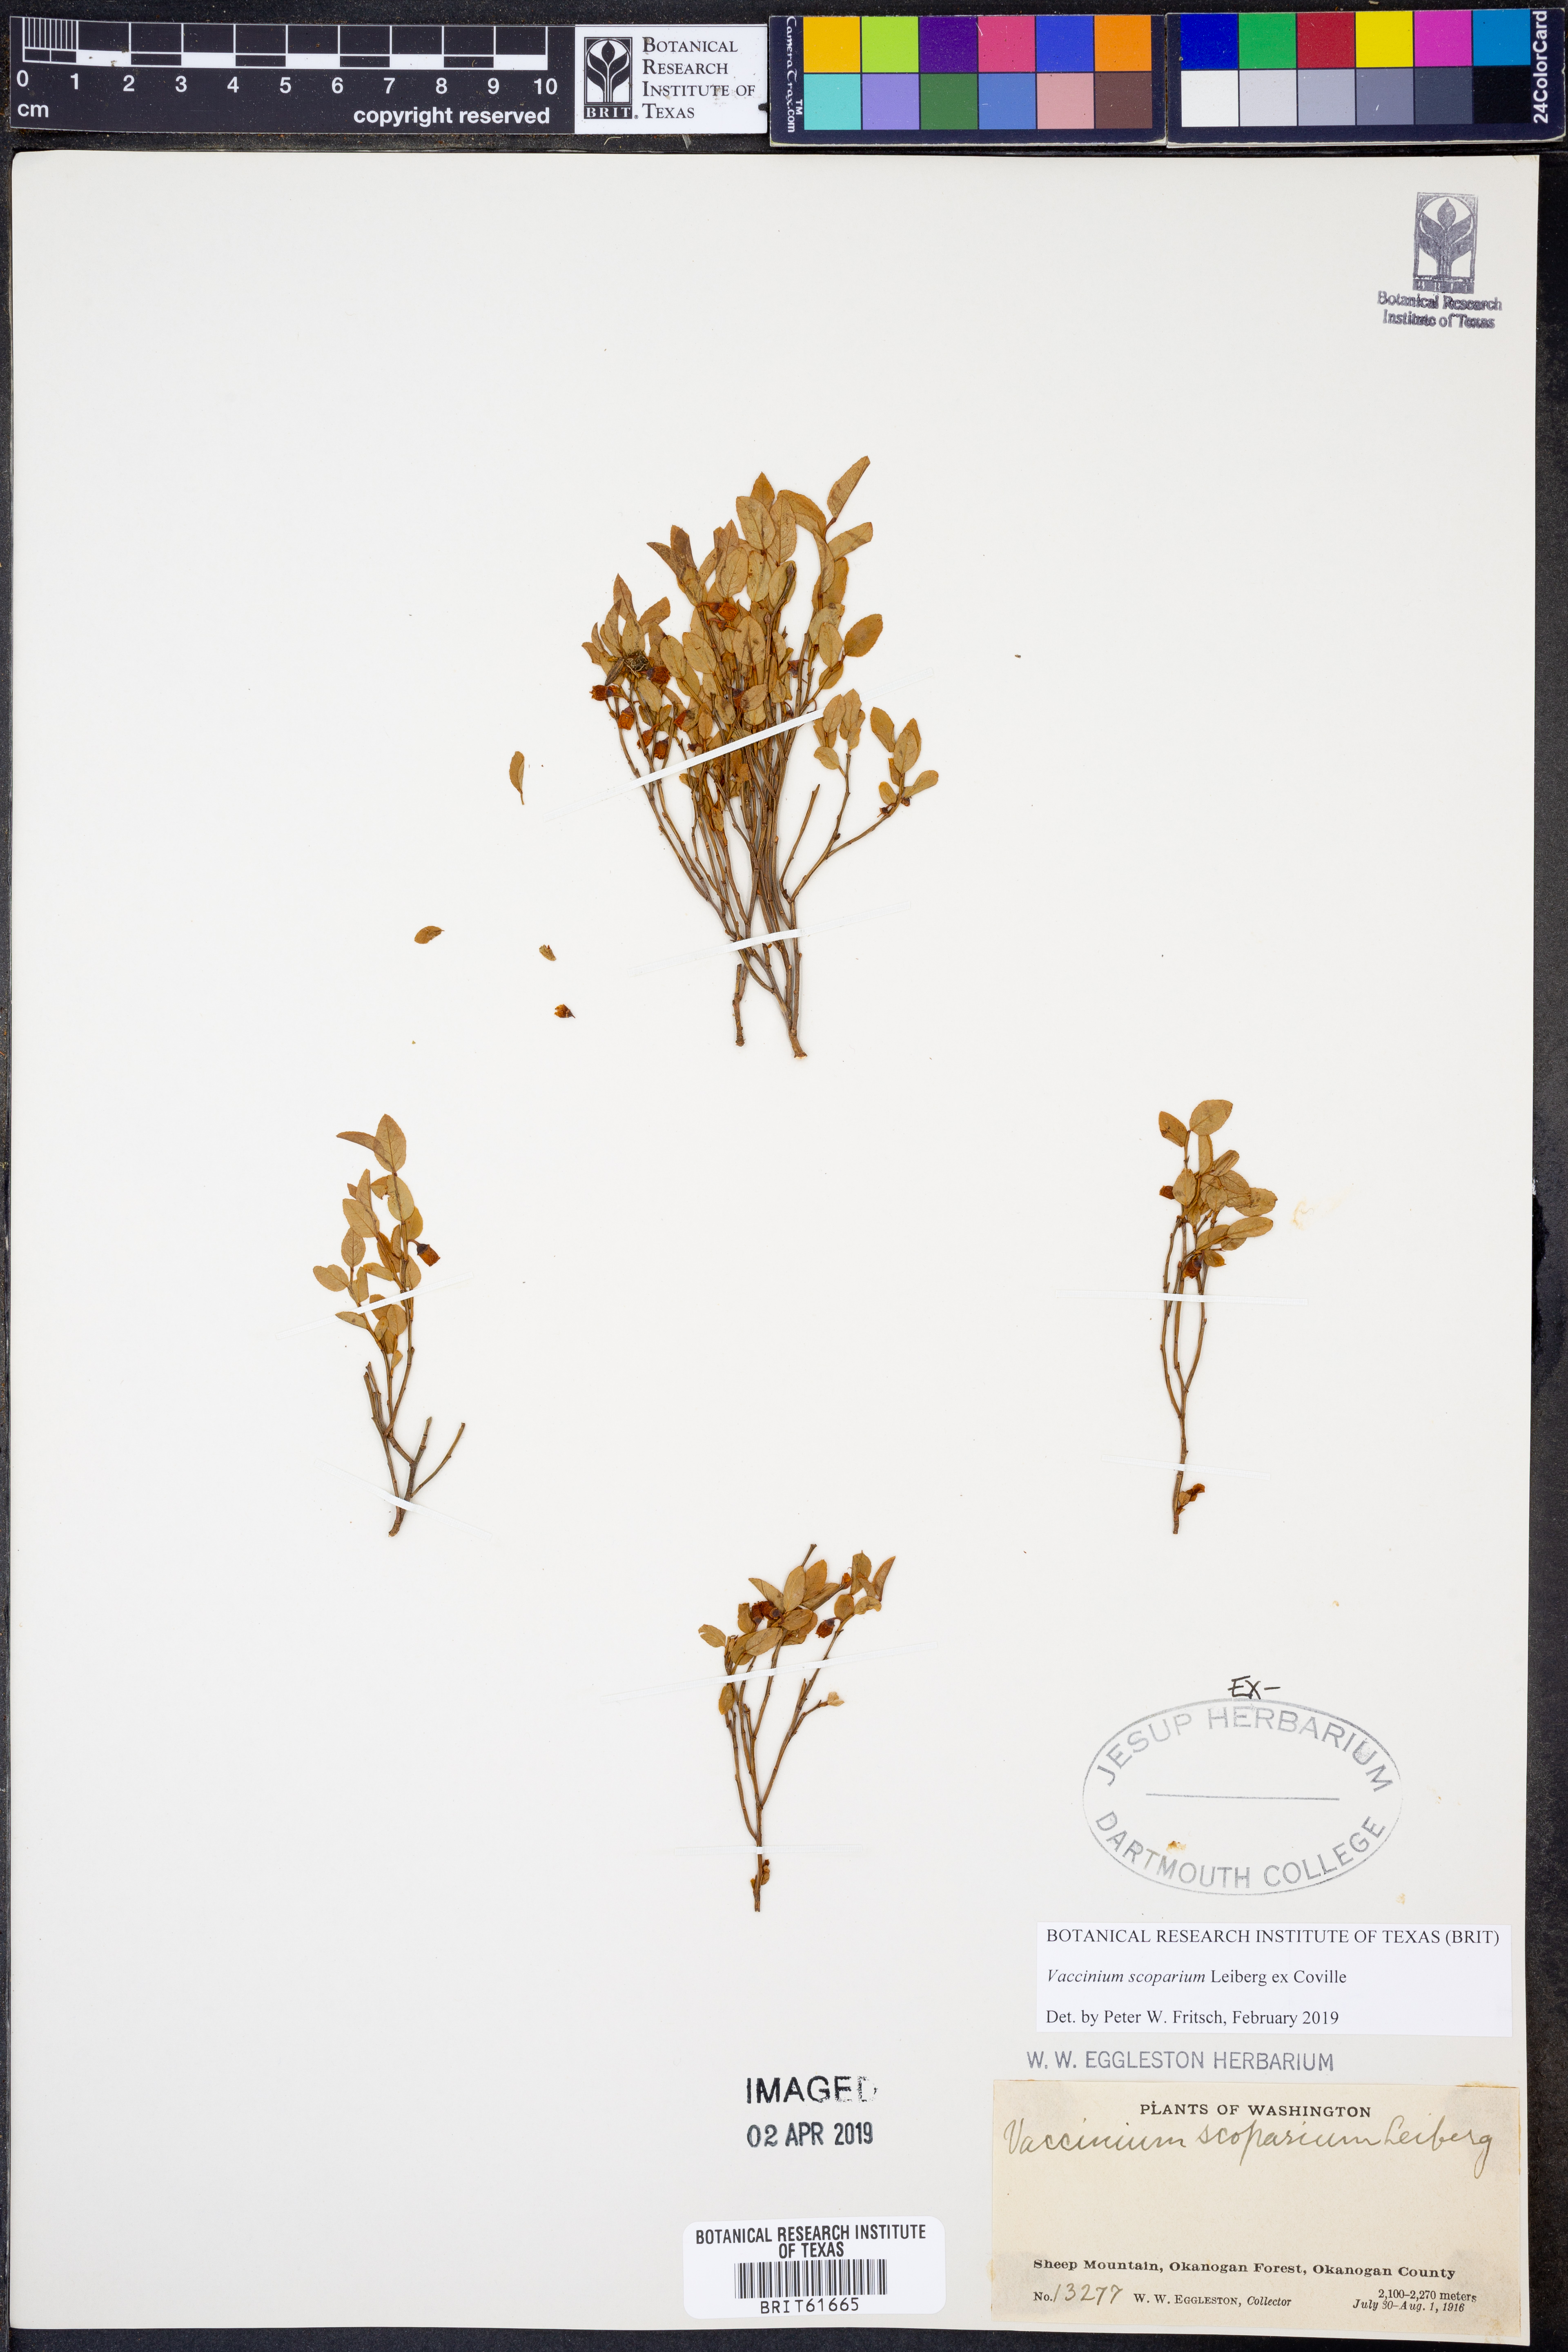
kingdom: Plantae
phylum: Tracheophyta
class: Magnoliopsida
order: Ericales
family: Ericaceae
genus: Vaccinium
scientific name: Vaccinium scoparium
